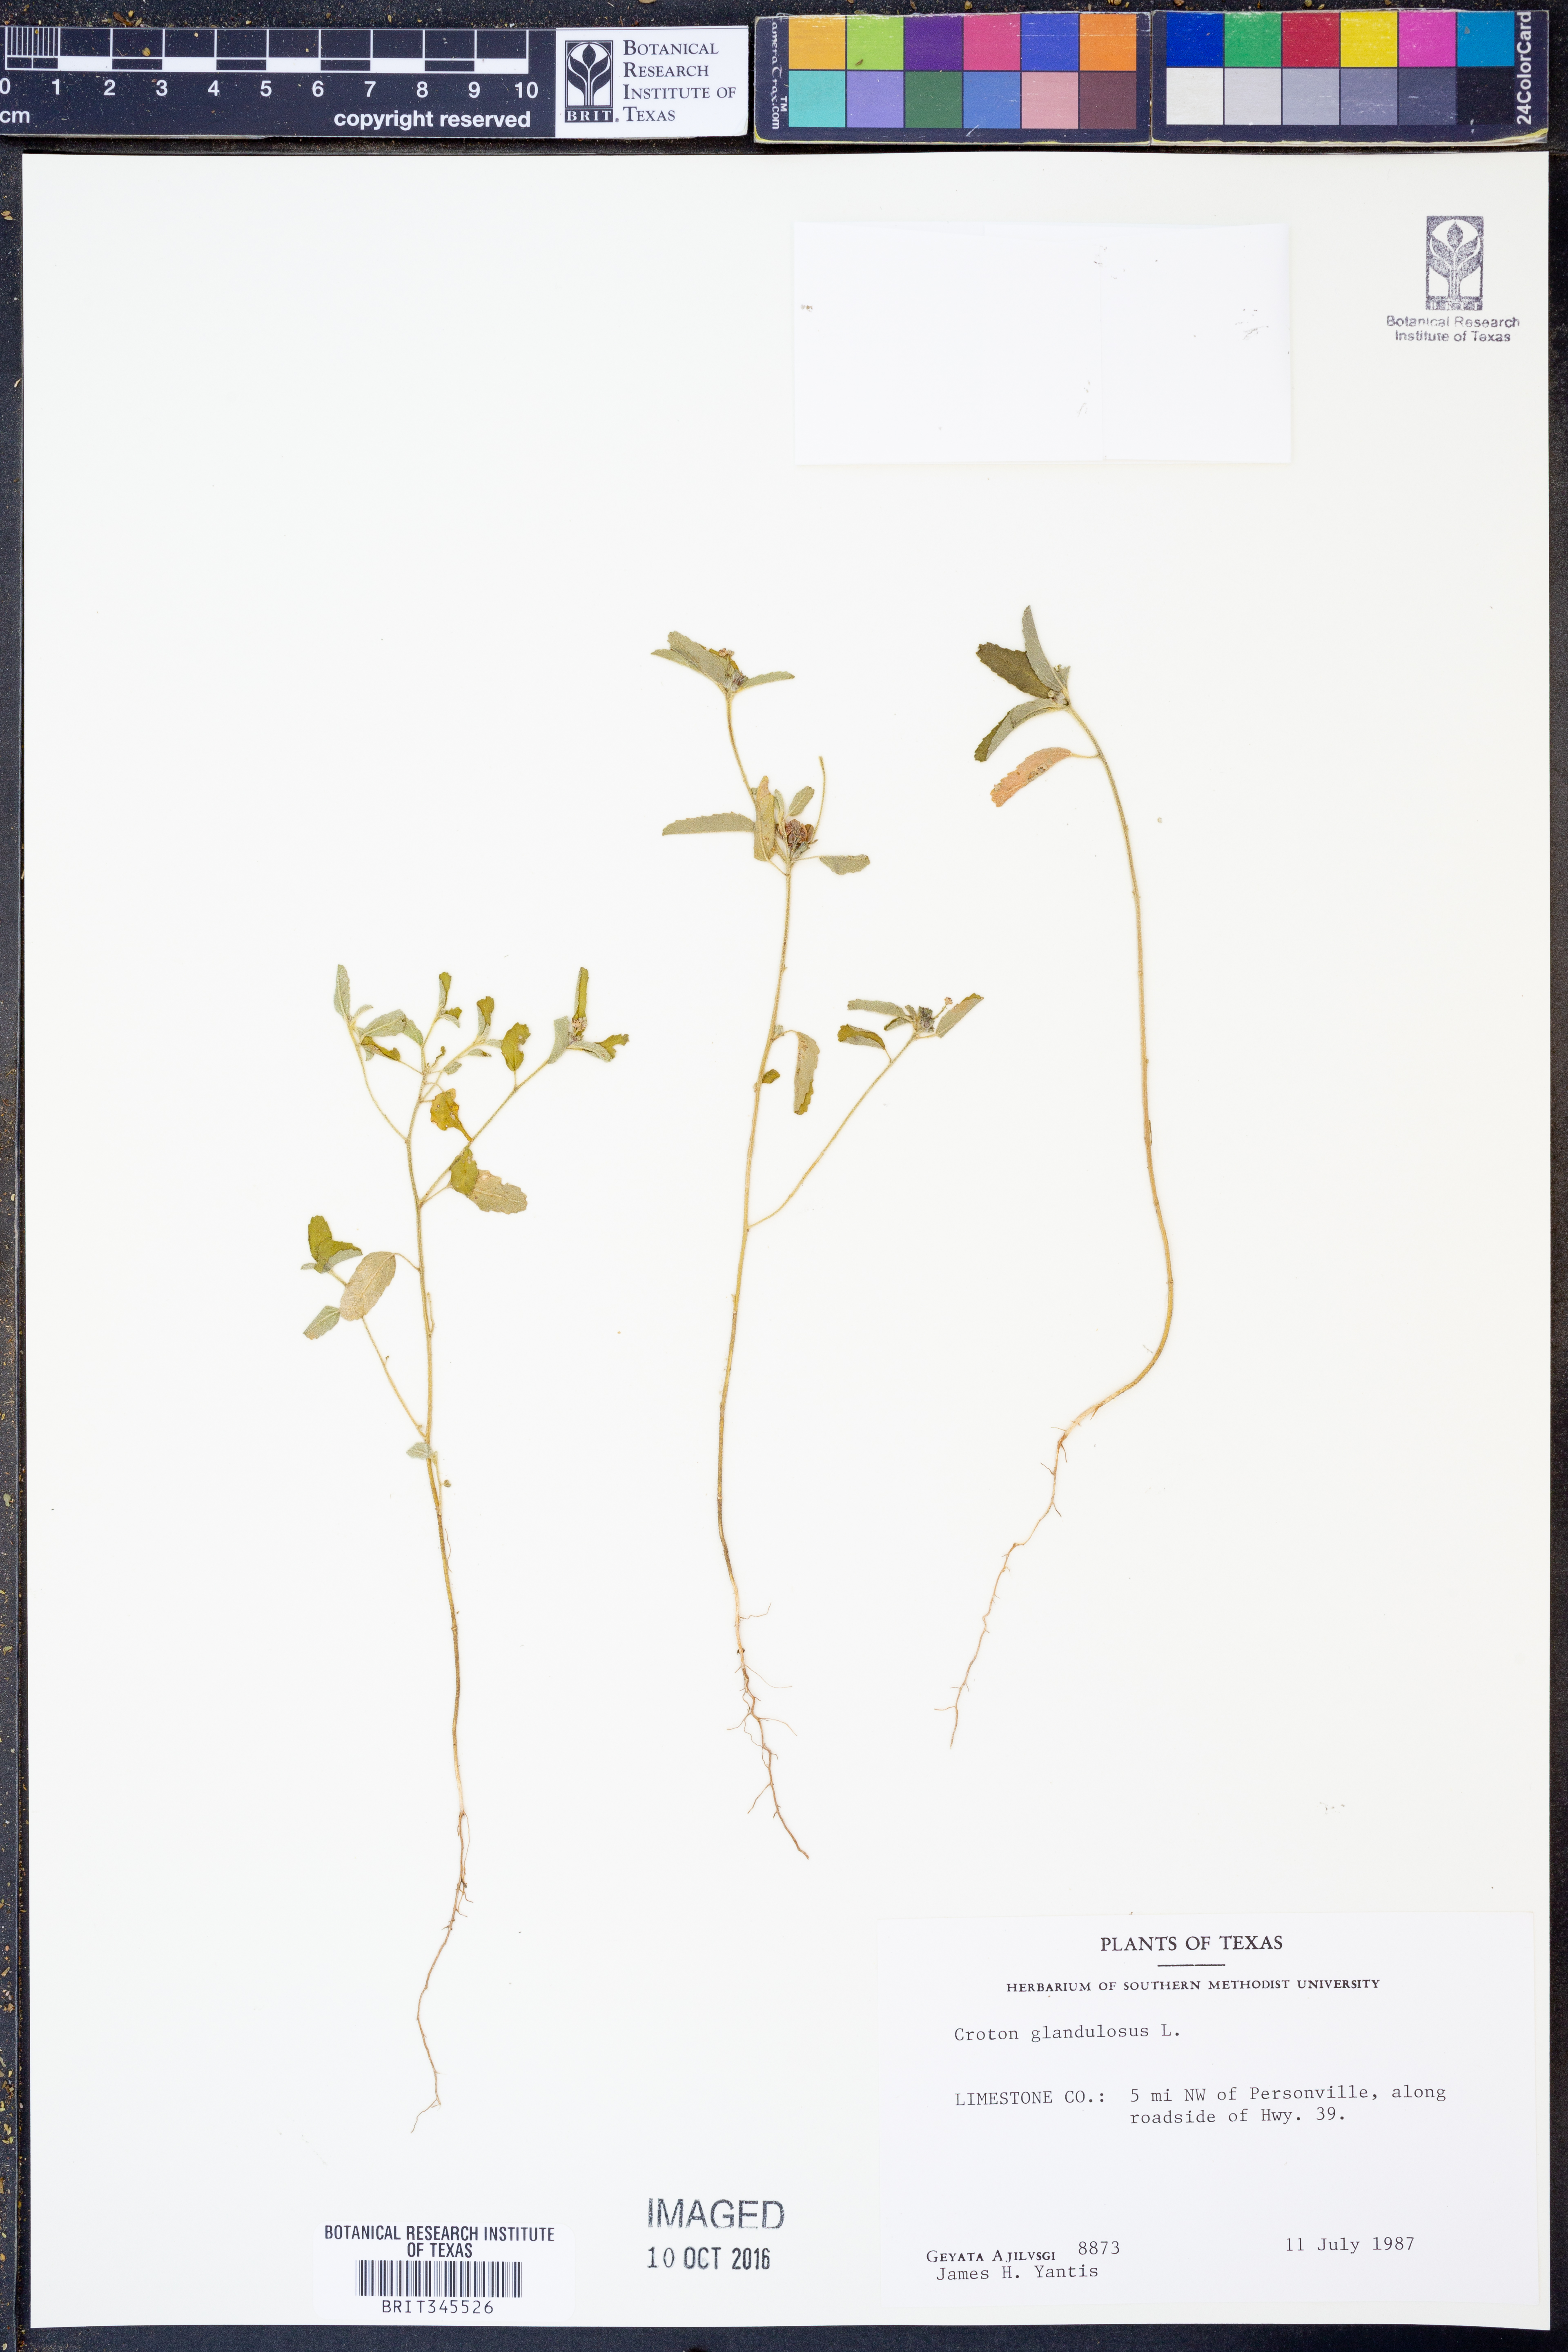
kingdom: Plantae
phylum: Tracheophyta
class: Magnoliopsida
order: Malpighiales
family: Euphorbiaceae
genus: Croton
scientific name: Croton glandulosus
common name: Tropic croton
